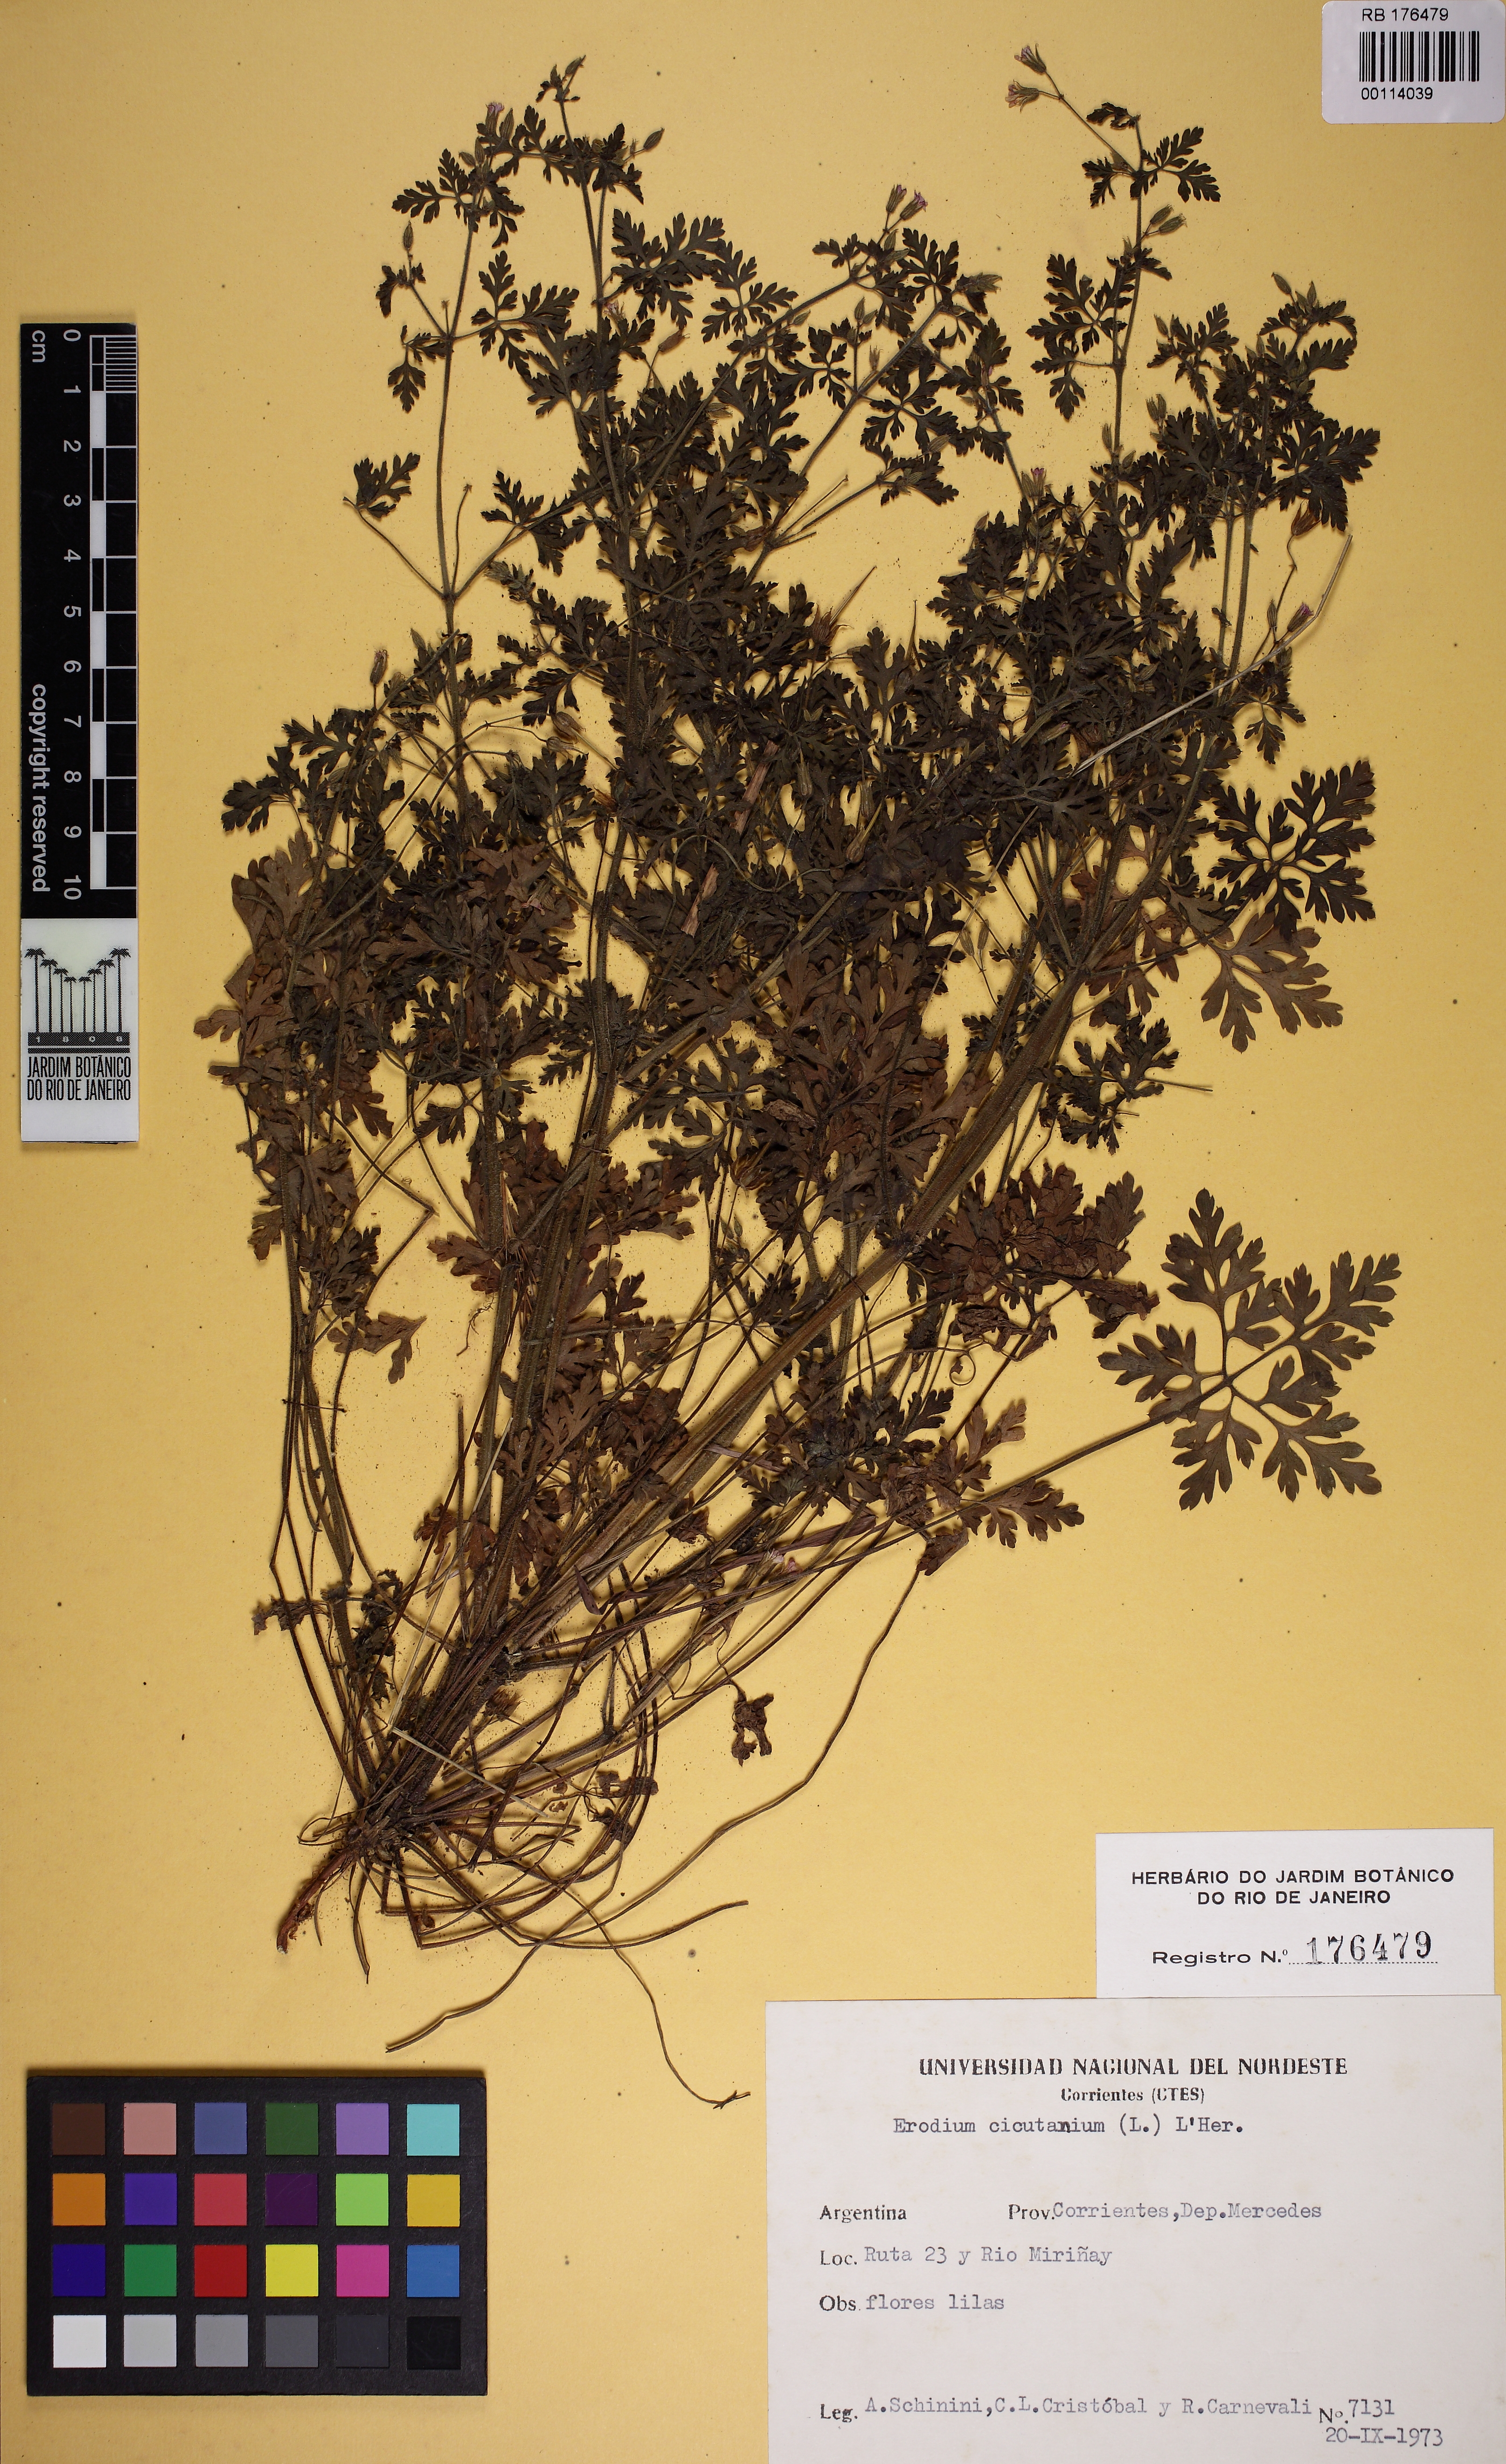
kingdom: Plantae
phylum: Tracheophyta
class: Magnoliopsida
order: Geraniales
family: Geraniaceae
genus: Erodium
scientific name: Erodium cicutarium
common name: Common stork's-bill
